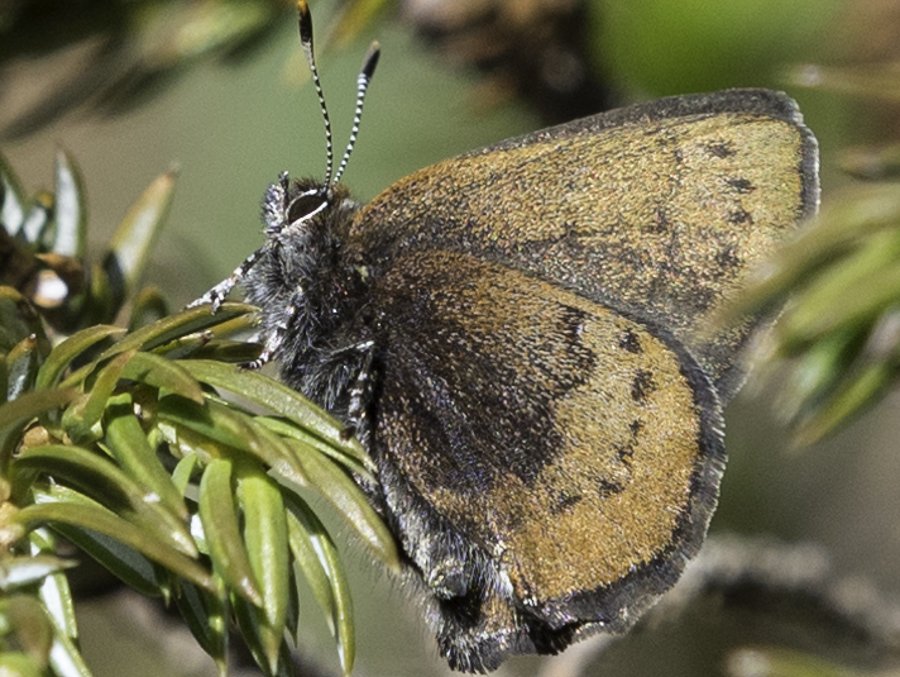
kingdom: Animalia
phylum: Arthropoda
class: Insecta
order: Lepidoptera
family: Lycaenidae
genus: Incisalia
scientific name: Incisalia irioides
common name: Brown Elfin
